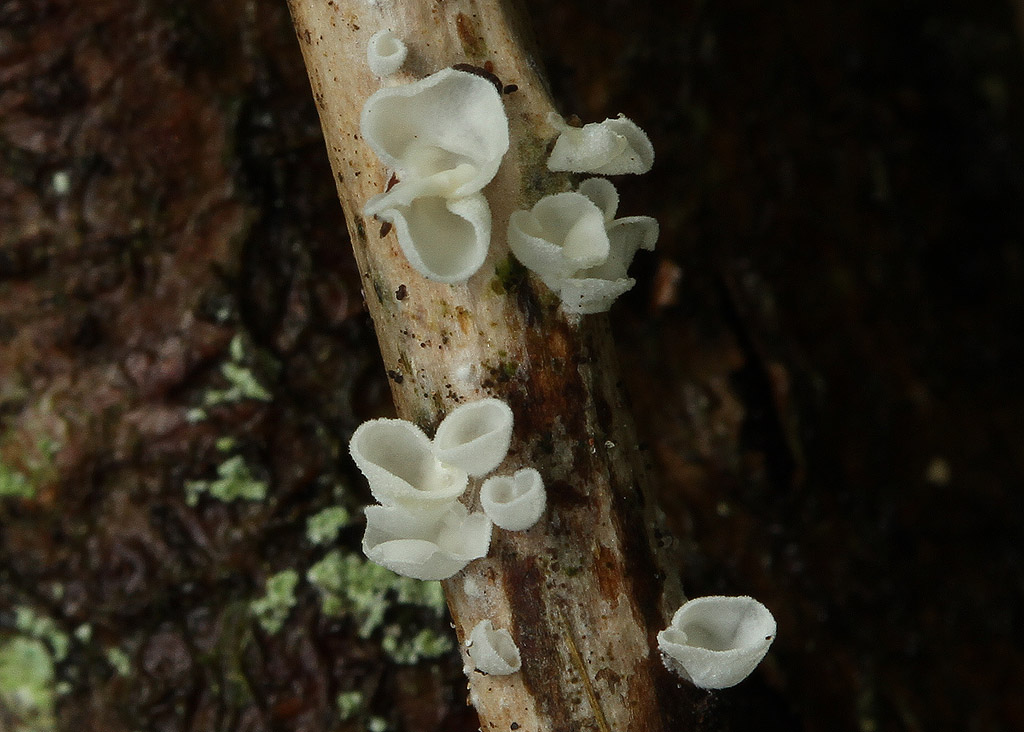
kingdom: Fungi
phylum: Basidiomycota
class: Agaricomycetes
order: Agaricales
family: Tricholomataceae
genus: Cellypha
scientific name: Cellypha goldbachii
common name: dråbeskål
